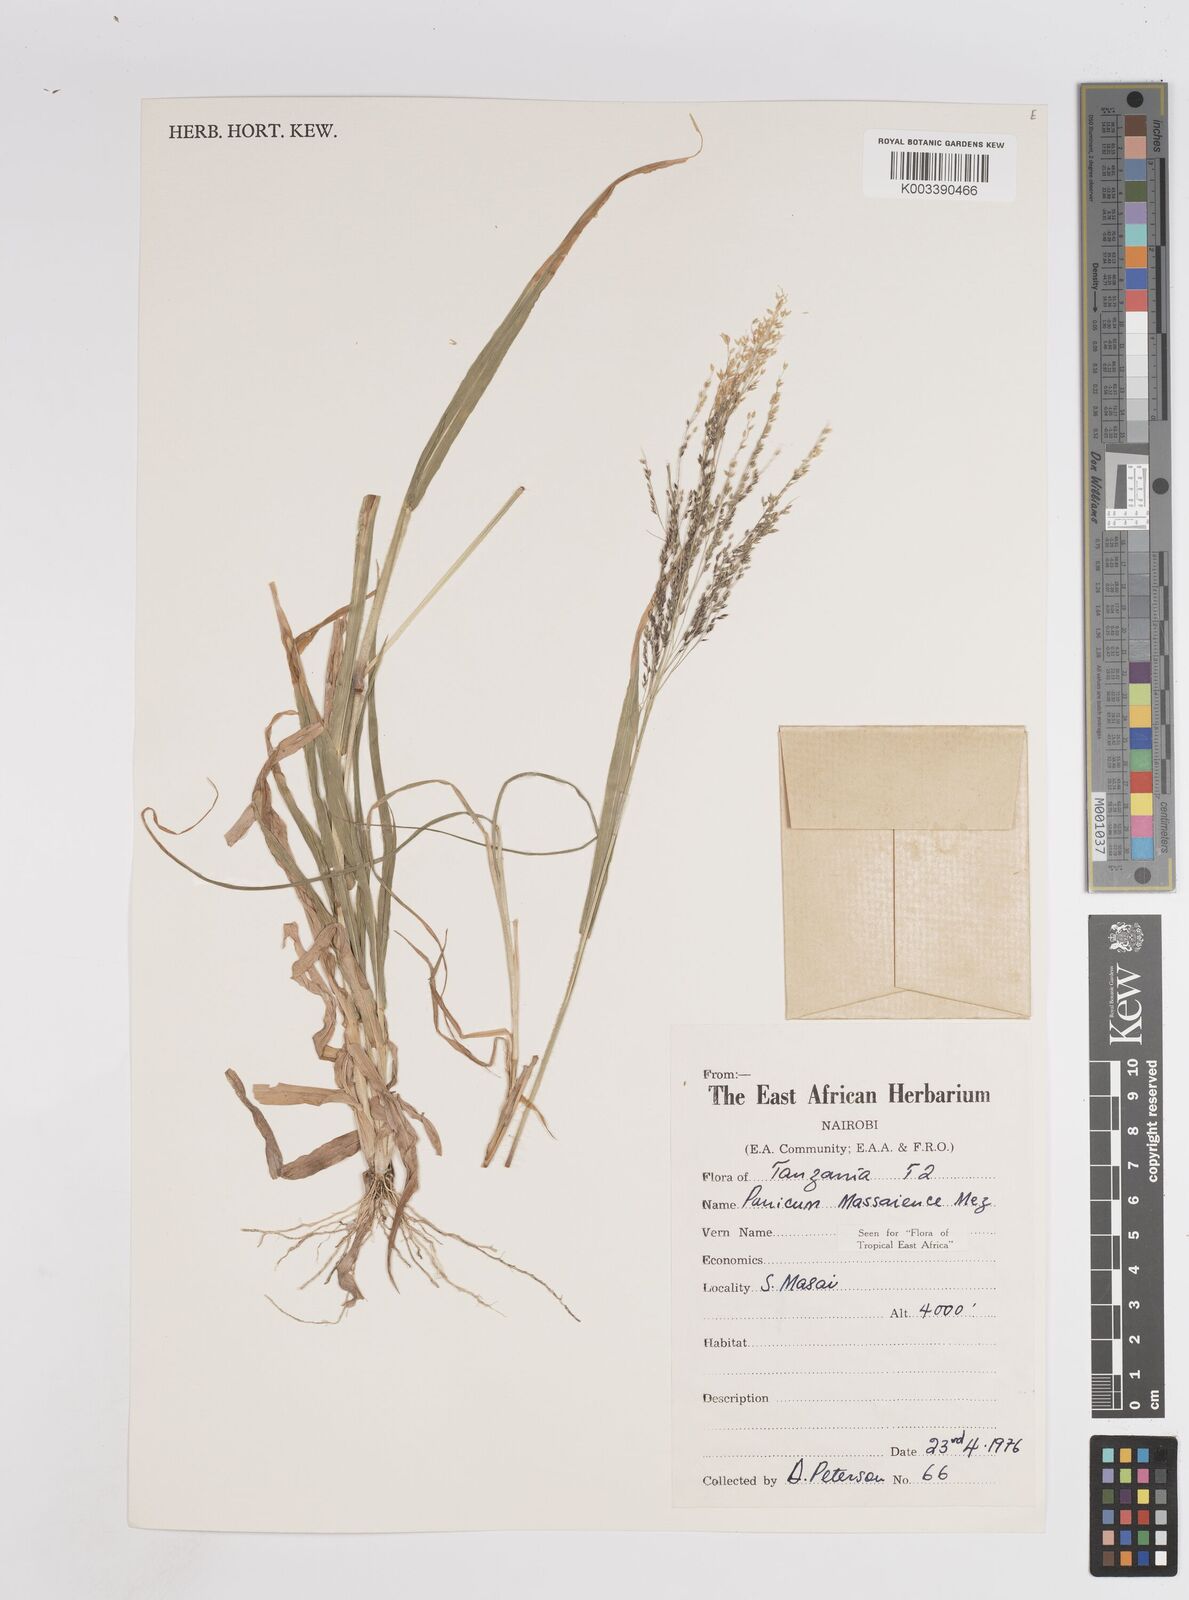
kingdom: Plantae
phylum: Tracheophyta
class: Liliopsida
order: Poales
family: Poaceae
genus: Panicum
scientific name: Panicum massaiense
